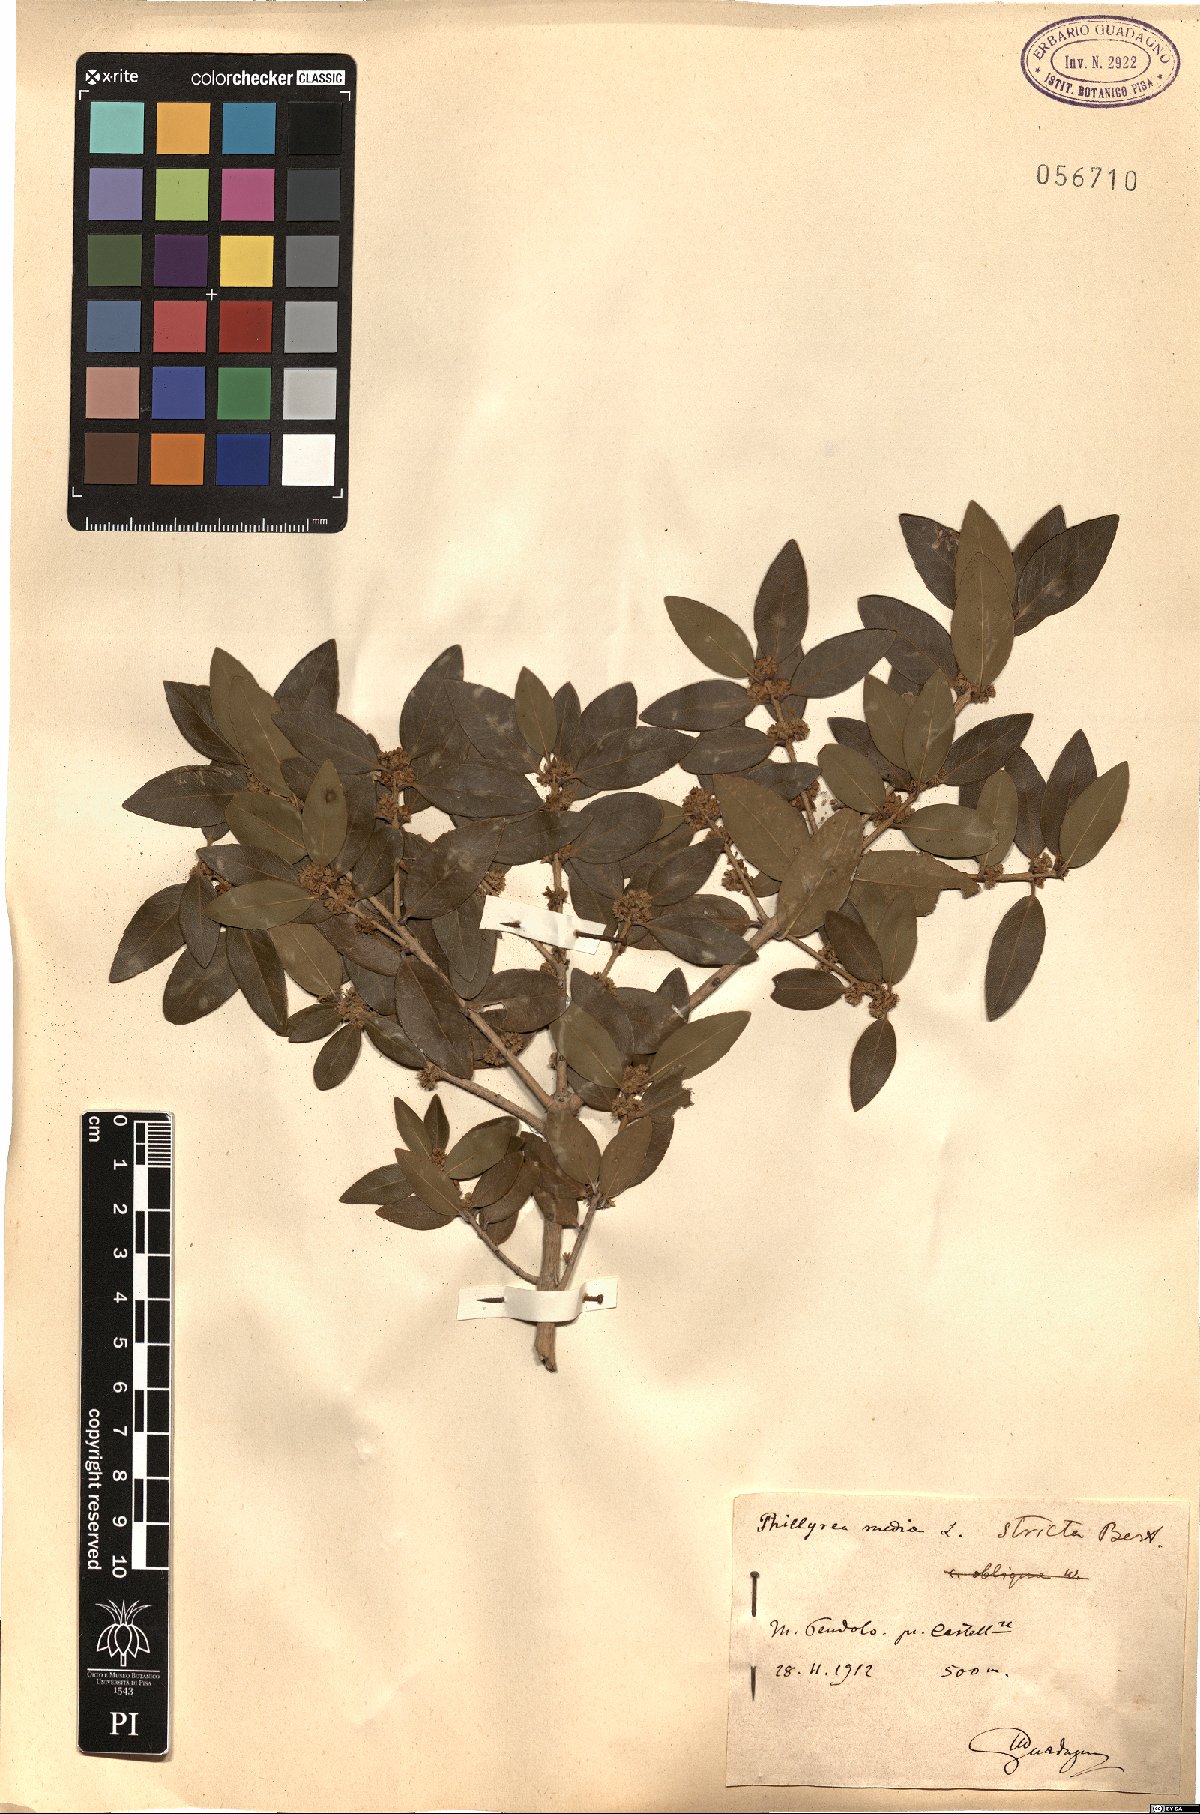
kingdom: Plantae
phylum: Tracheophyta
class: Magnoliopsida
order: Lamiales
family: Oleaceae
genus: Phillyrea
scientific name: Phillyrea latifolia
